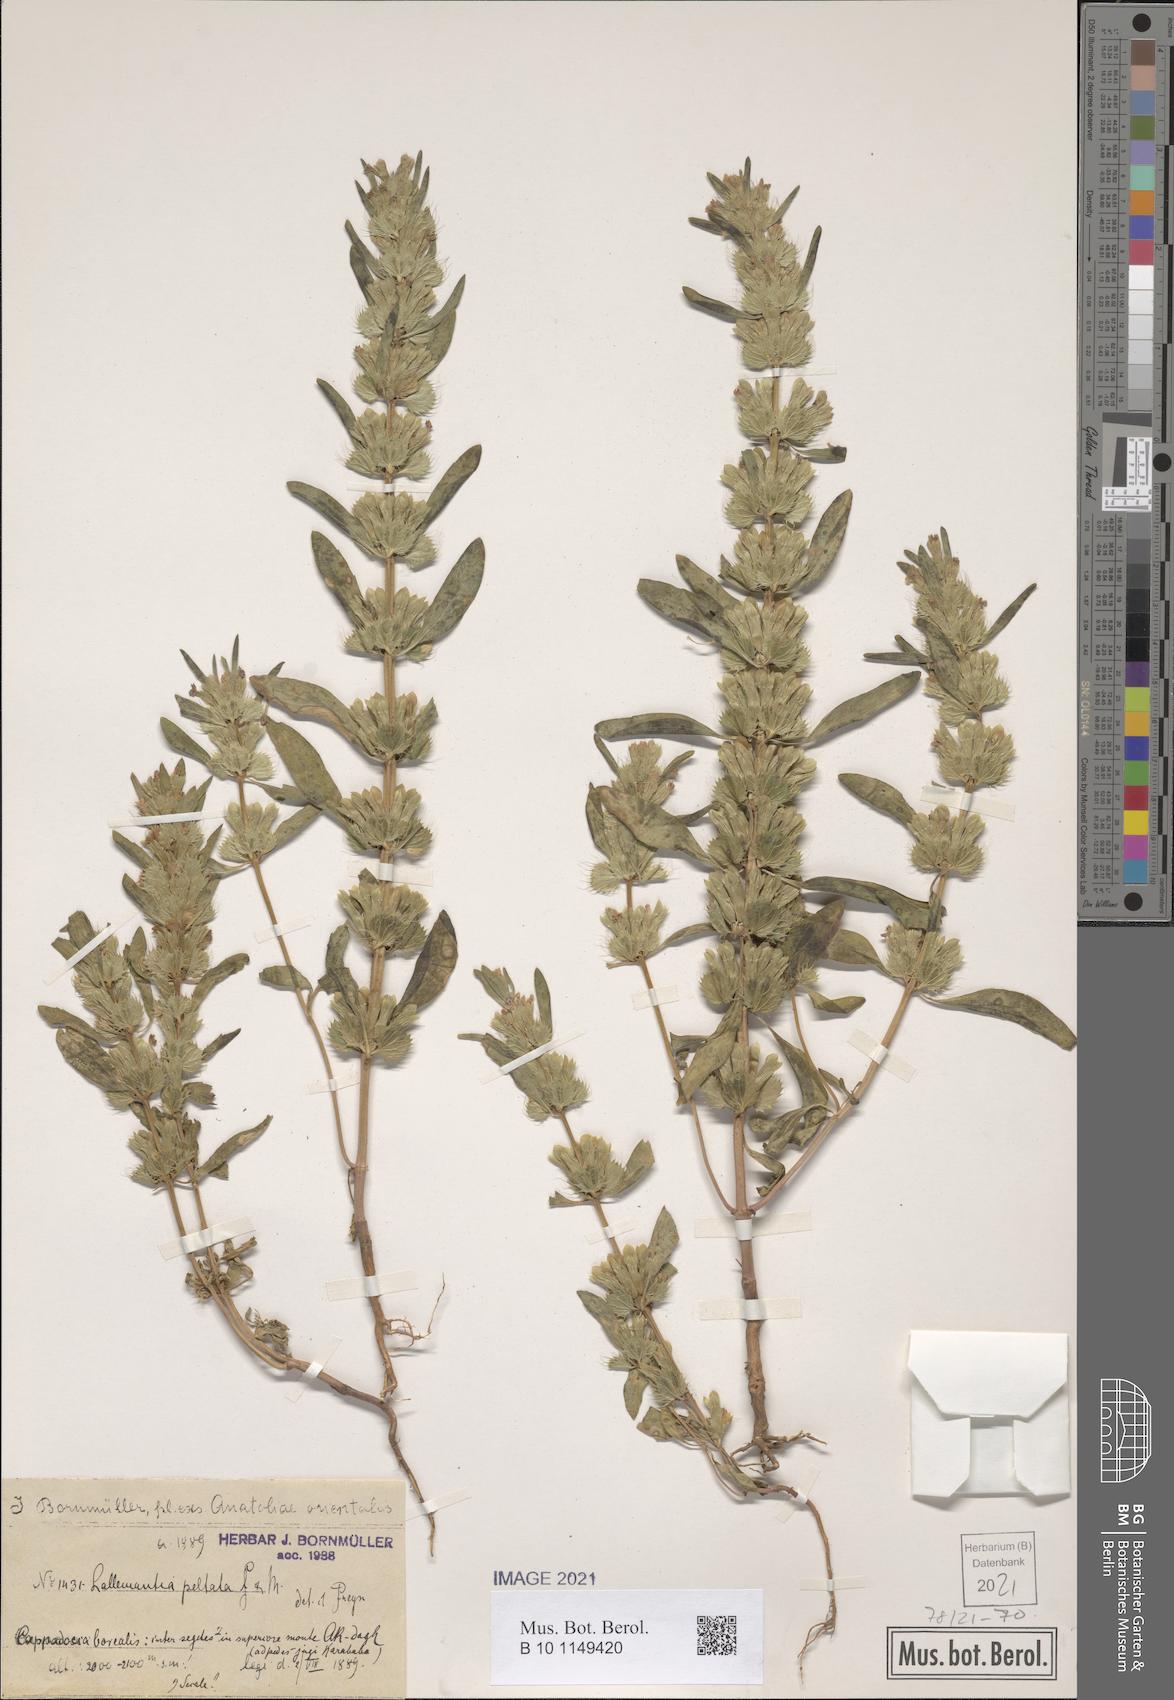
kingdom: Plantae
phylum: Tracheophyta
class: Magnoliopsida
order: Lamiales
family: Lamiaceae
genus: Lallemantia
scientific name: Lallemantia peltata
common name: Lion's heart
